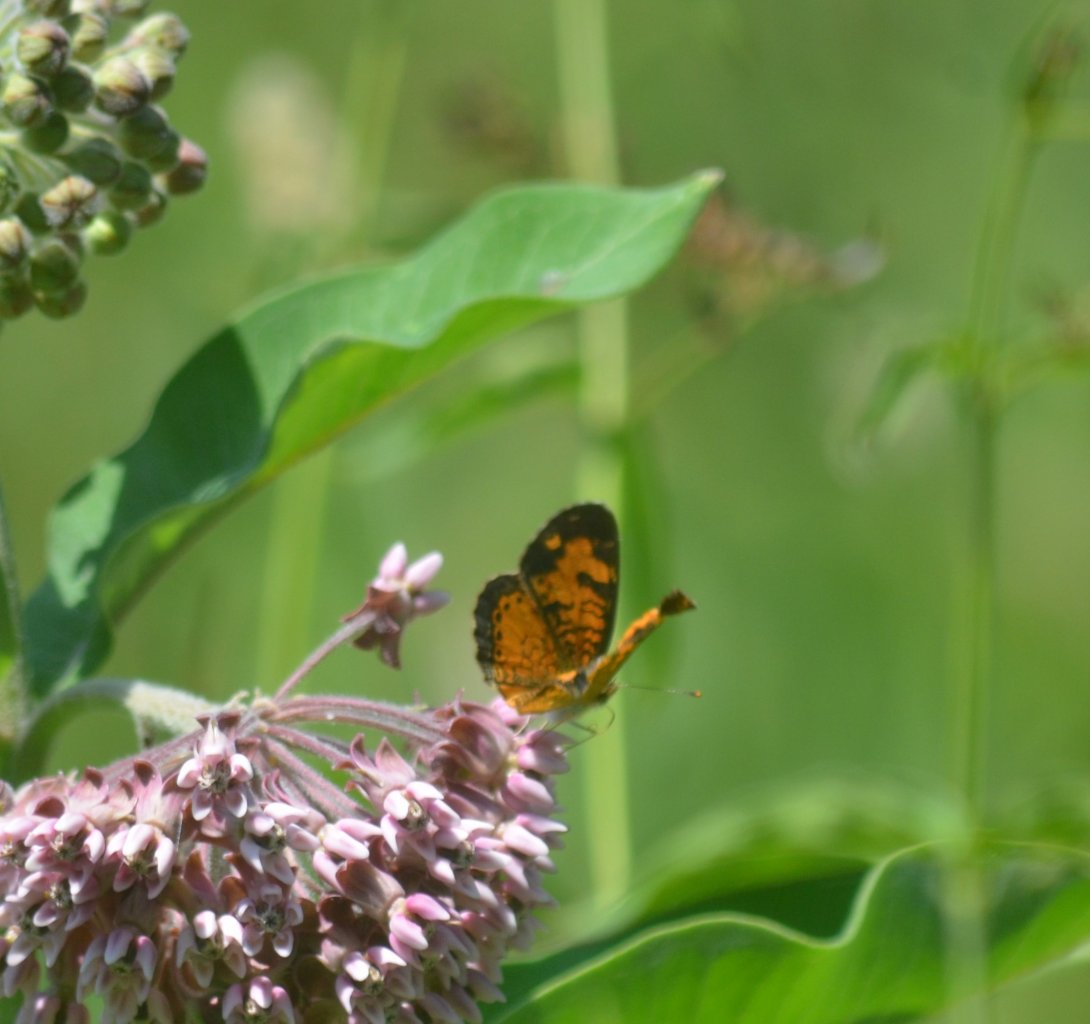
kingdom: Animalia
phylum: Arthropoda
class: Insecta
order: Lepidoptera
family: Nymphalidae
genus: Phyciodes
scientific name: Phyciodes tharos
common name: Northern Crescent
